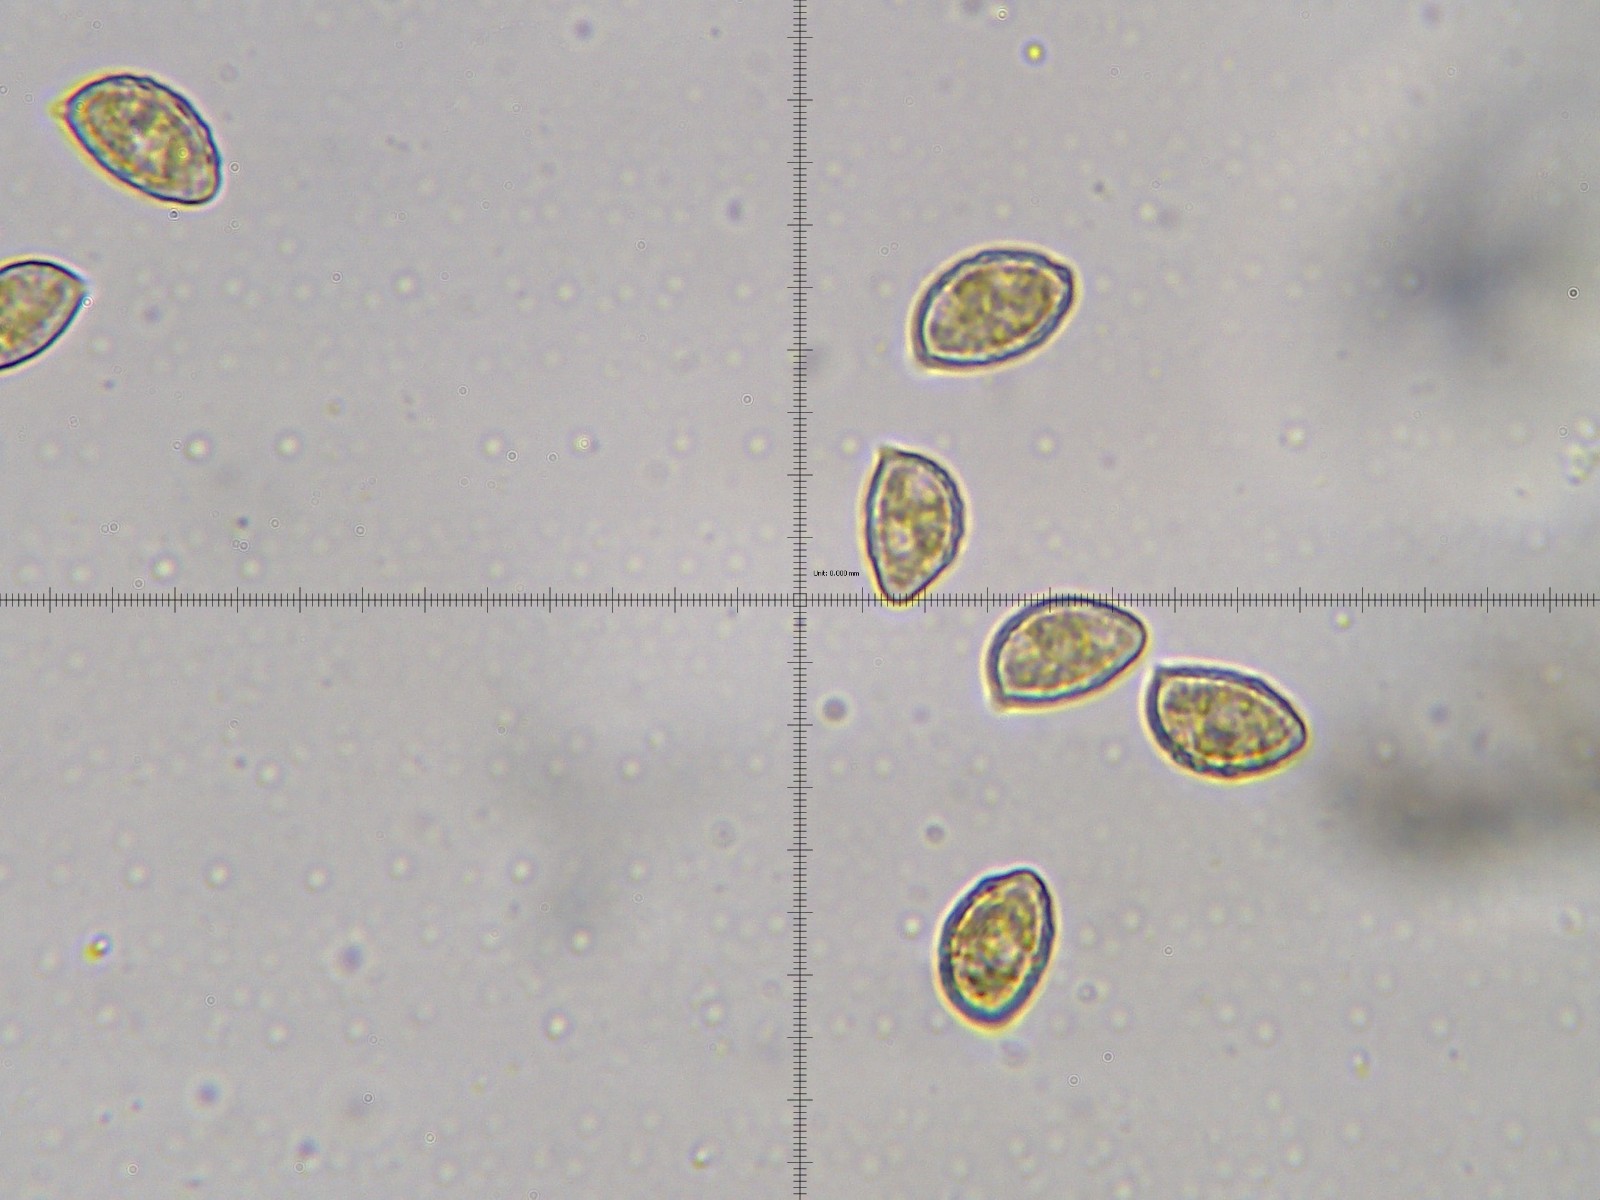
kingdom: Fungi
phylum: Basidiomycota
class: Agaricomycetes
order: Agaricales
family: Hymenogastraceae
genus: Naucoria
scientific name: Naucoria sphagneti
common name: lysrandet knaphat
